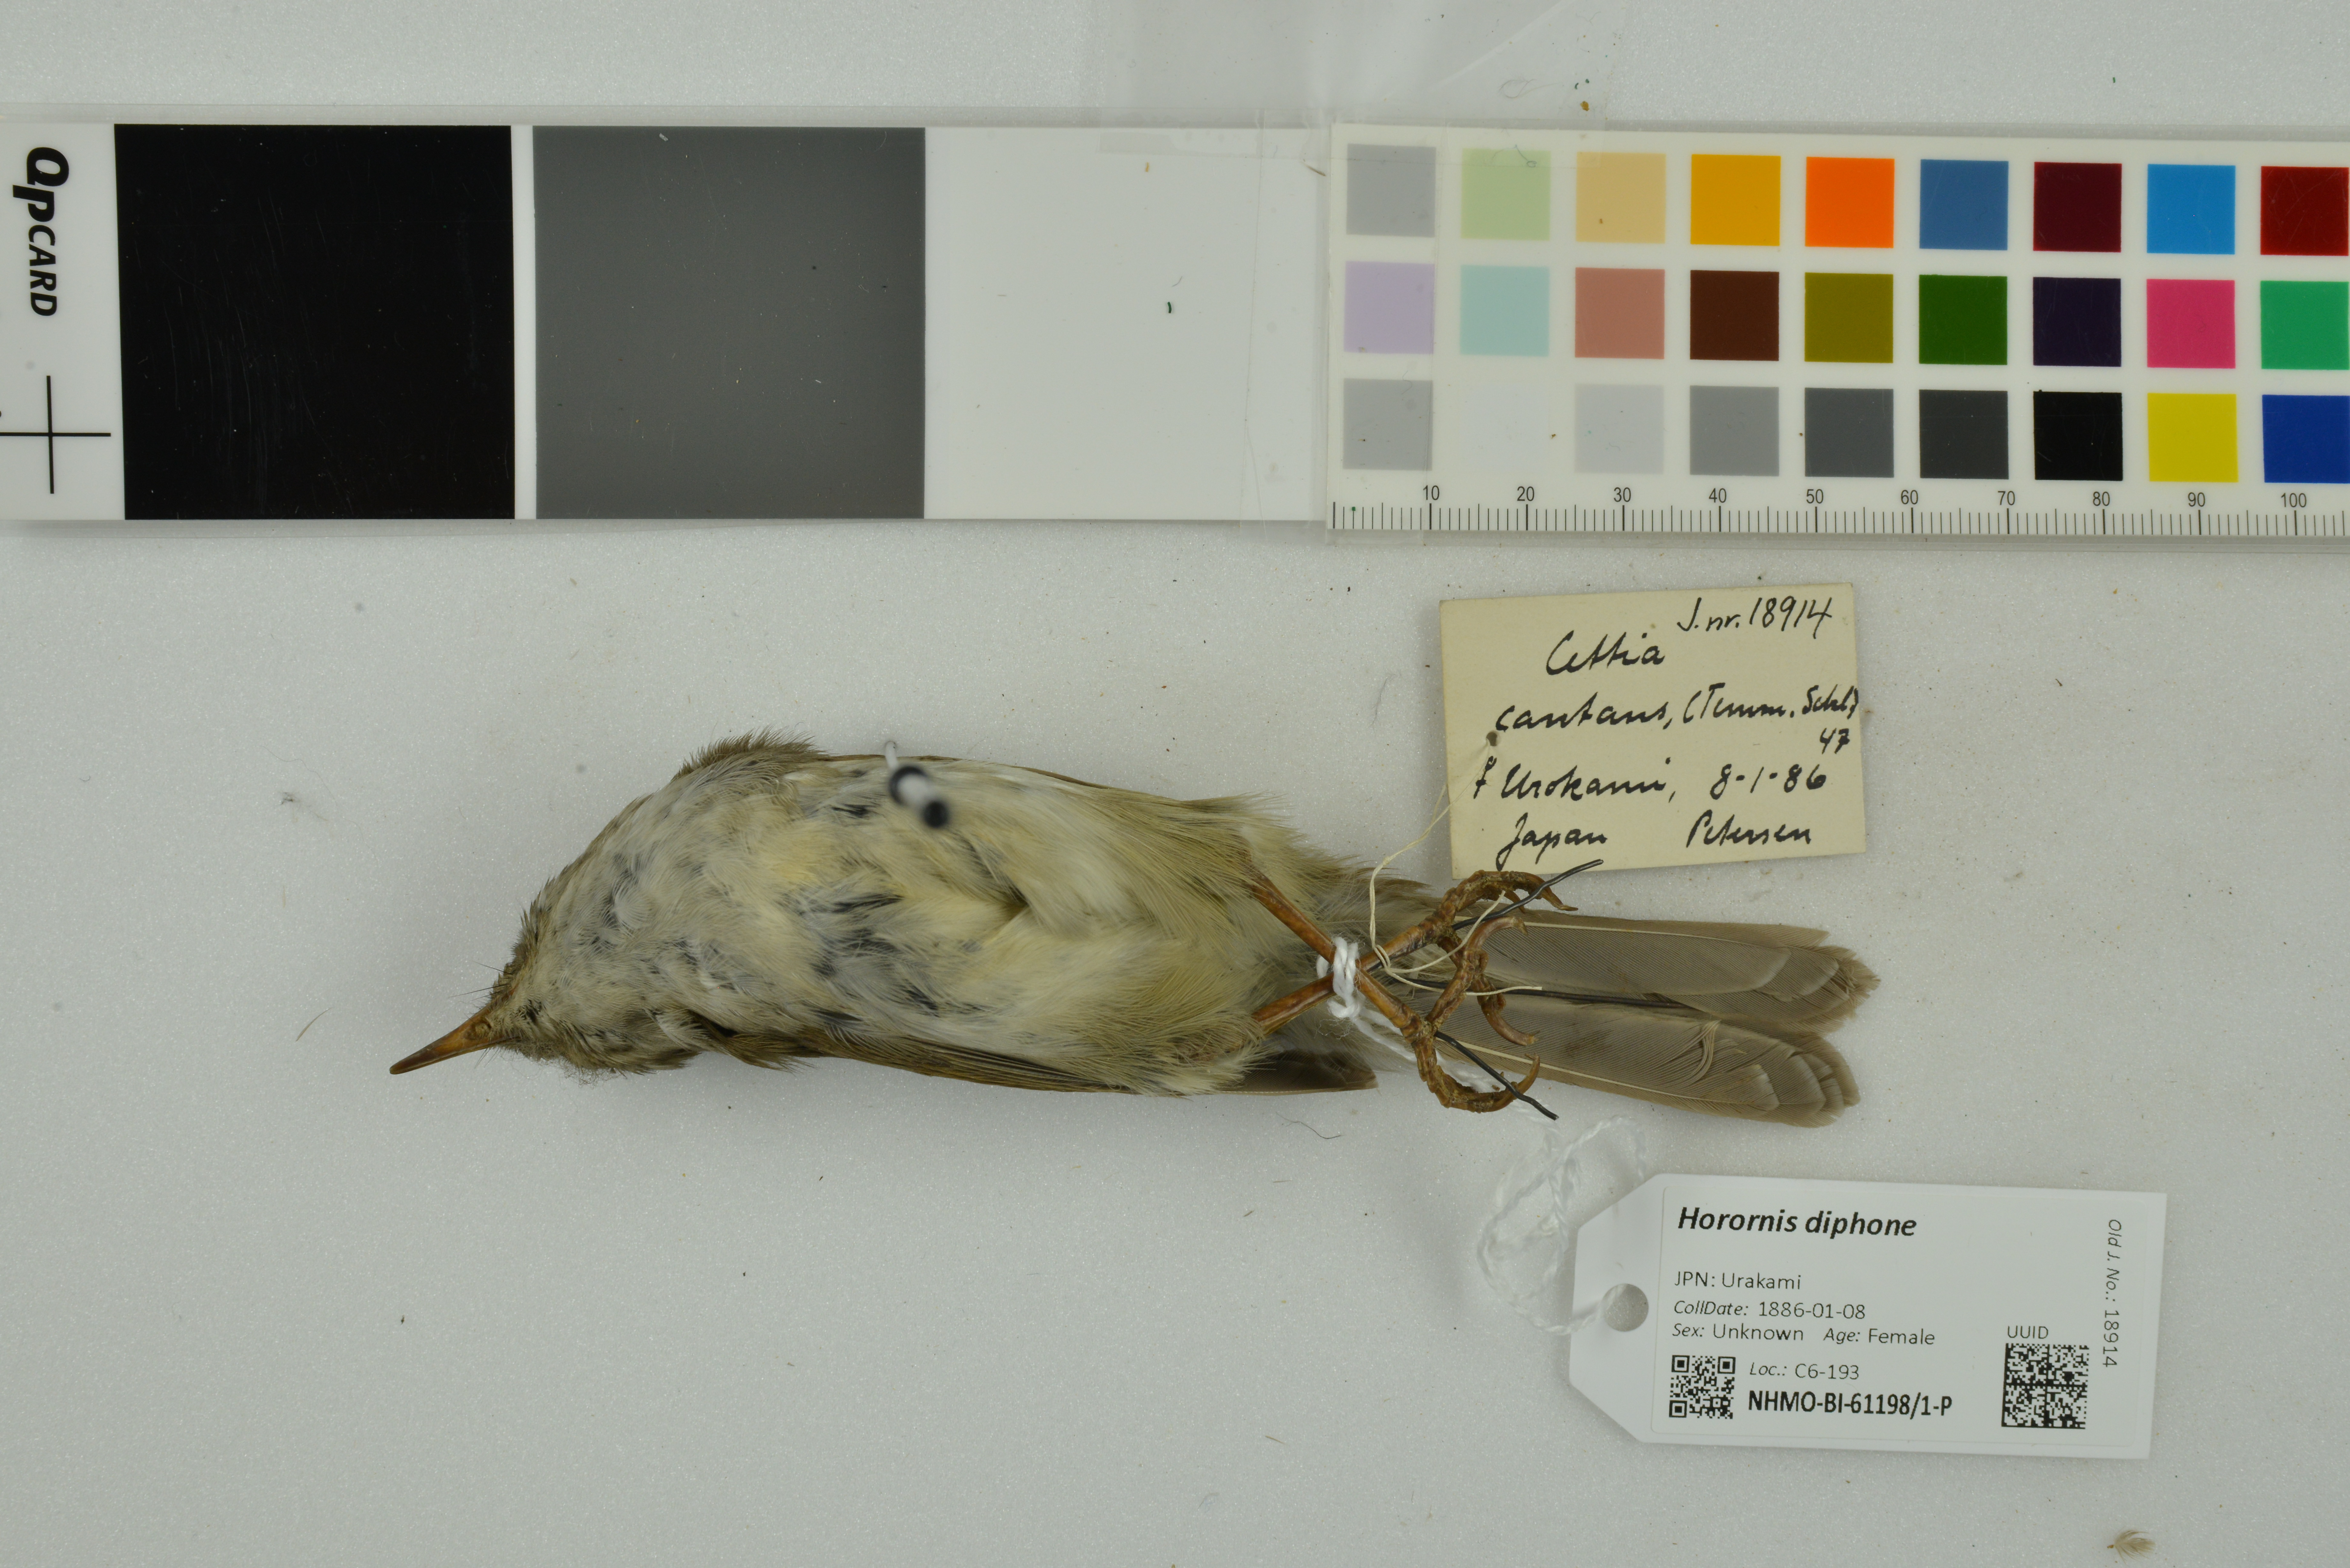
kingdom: Animalia
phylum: Chordata
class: Aves
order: Passeriformes
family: Cettiidae
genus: Horornis
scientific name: Horornis diphone
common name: Japanese bush warbler
